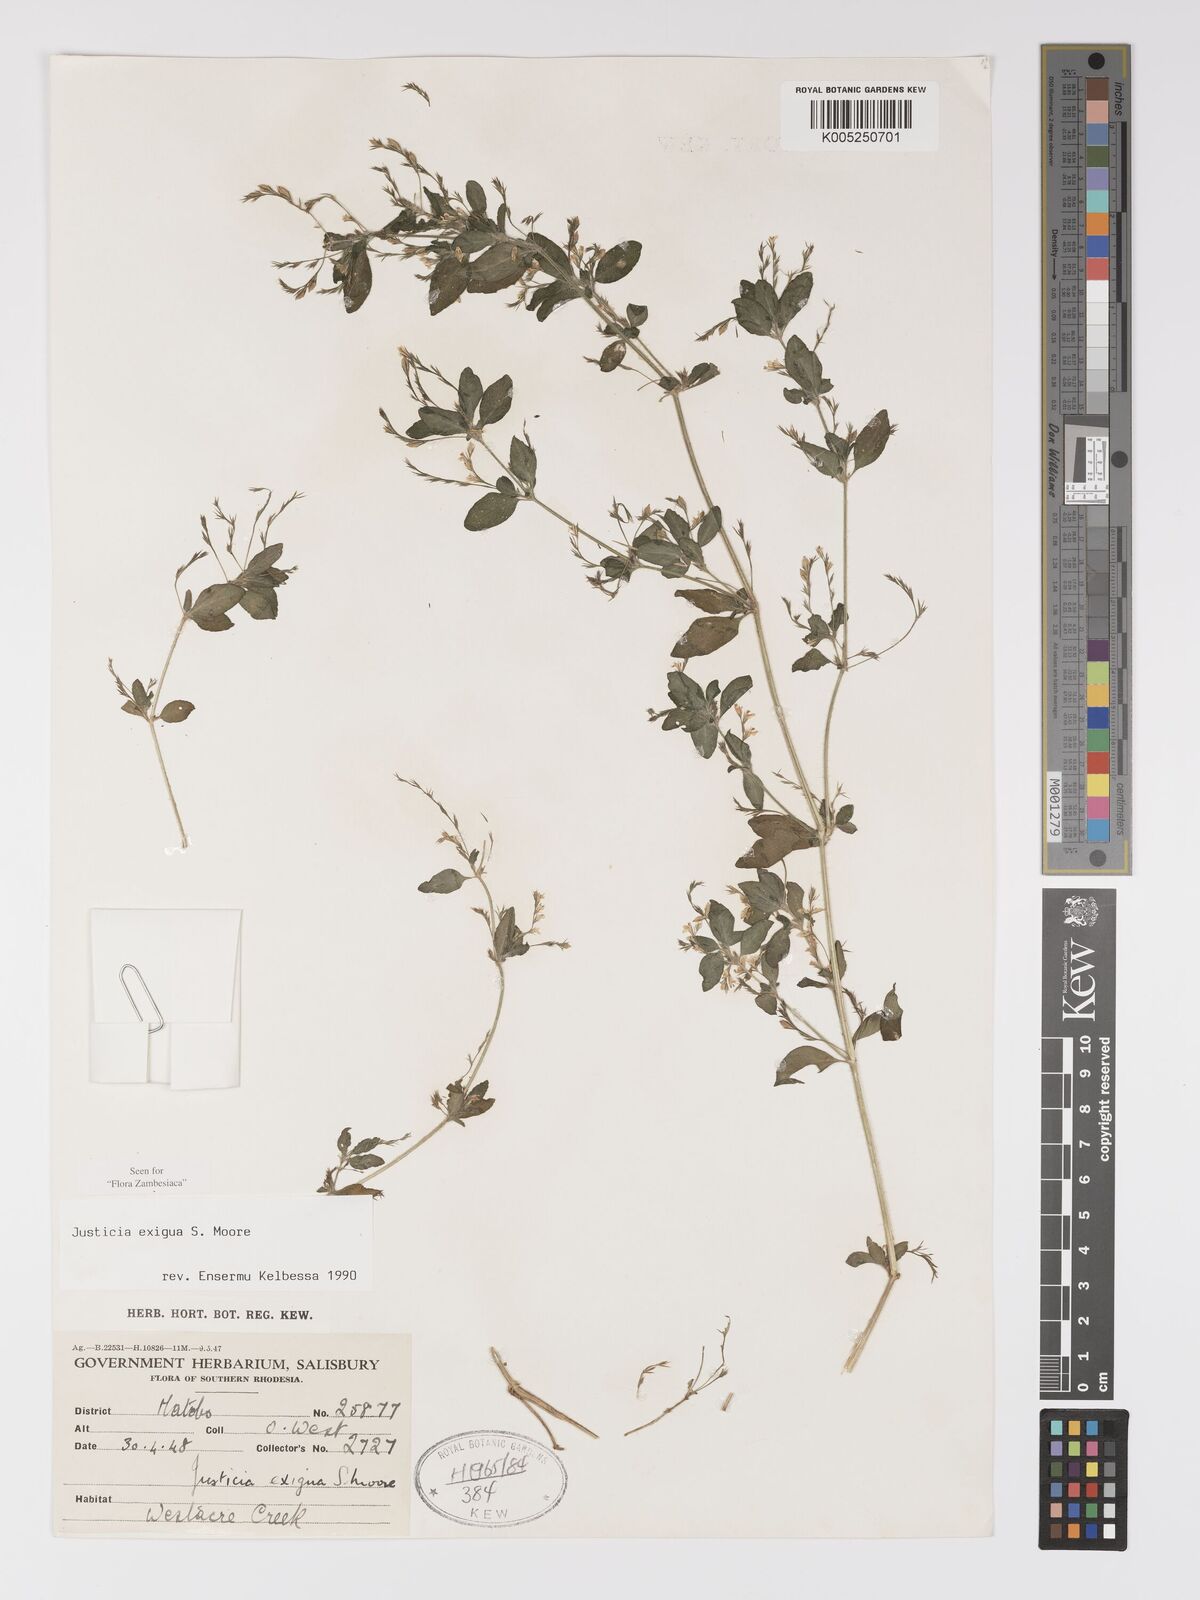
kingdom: Plantae
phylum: Tracheophyta
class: Magnoliopsida
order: Lamiales
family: Acanthaceae
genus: Justicia
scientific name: Justicia exigua
